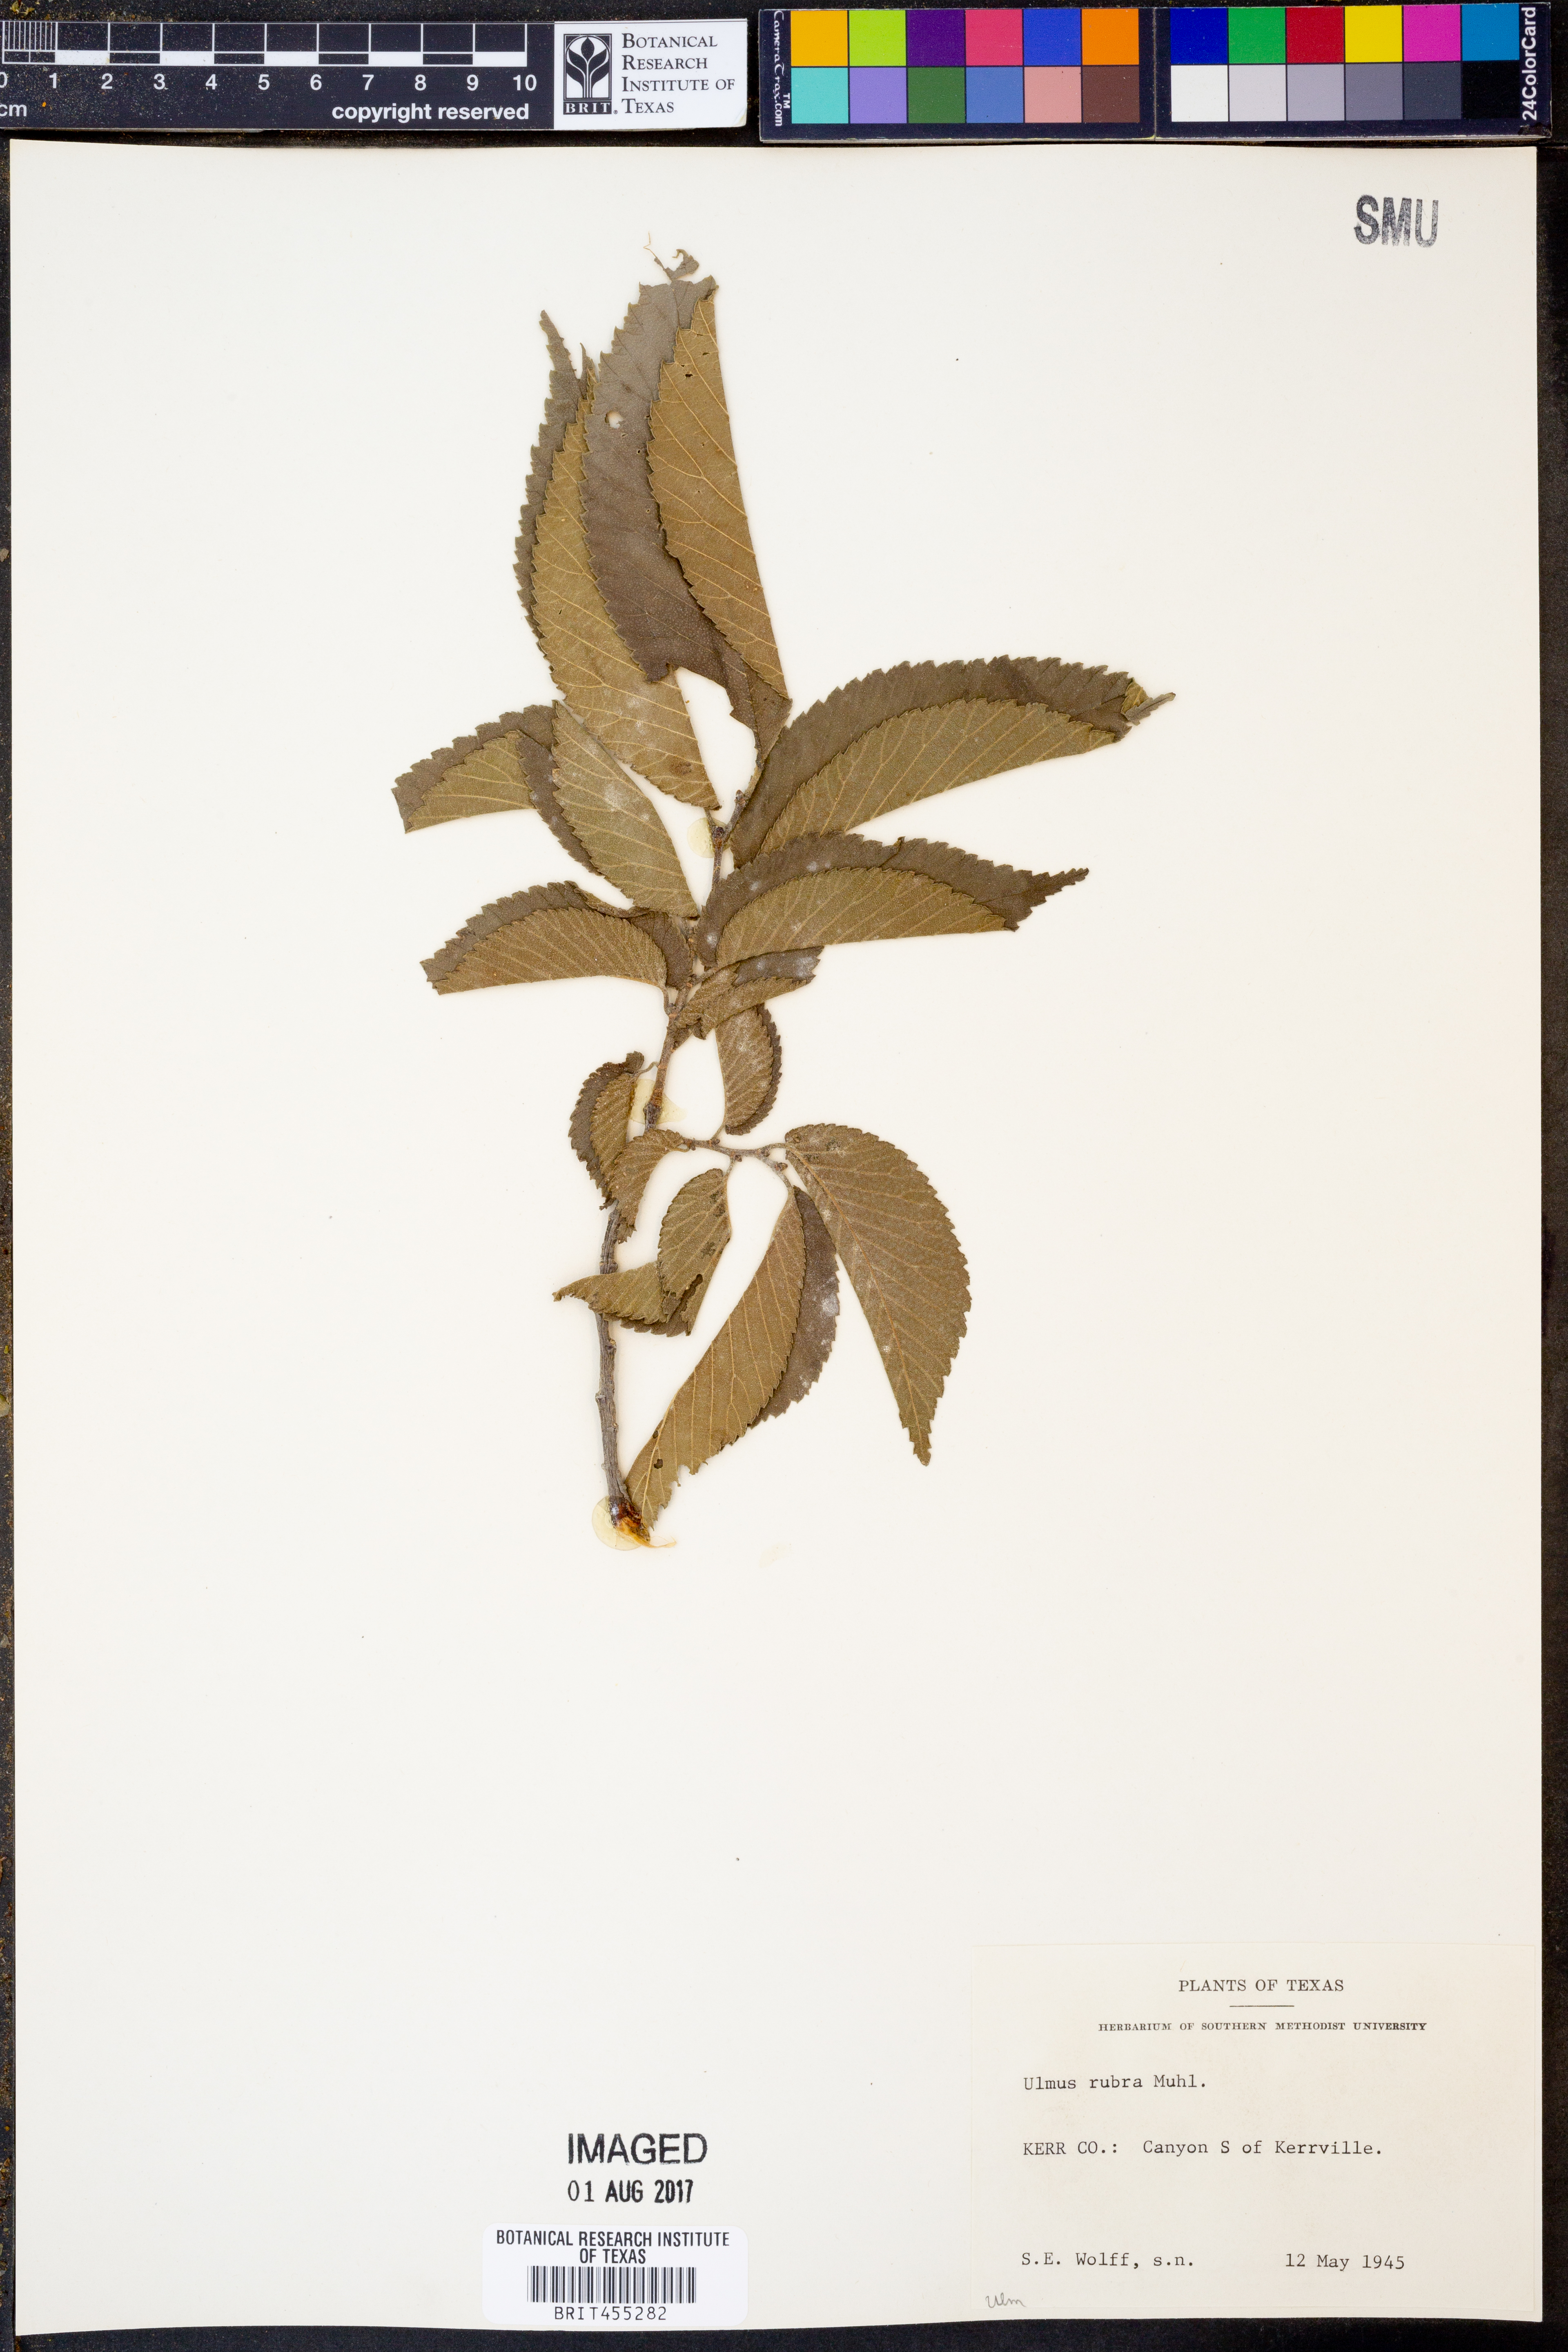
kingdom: Plantae
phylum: Tracheophyta
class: Magnoliopsida
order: Rosales
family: Ulmaceae
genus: Ulmus
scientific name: Ulmus rubra
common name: Slippery elm
